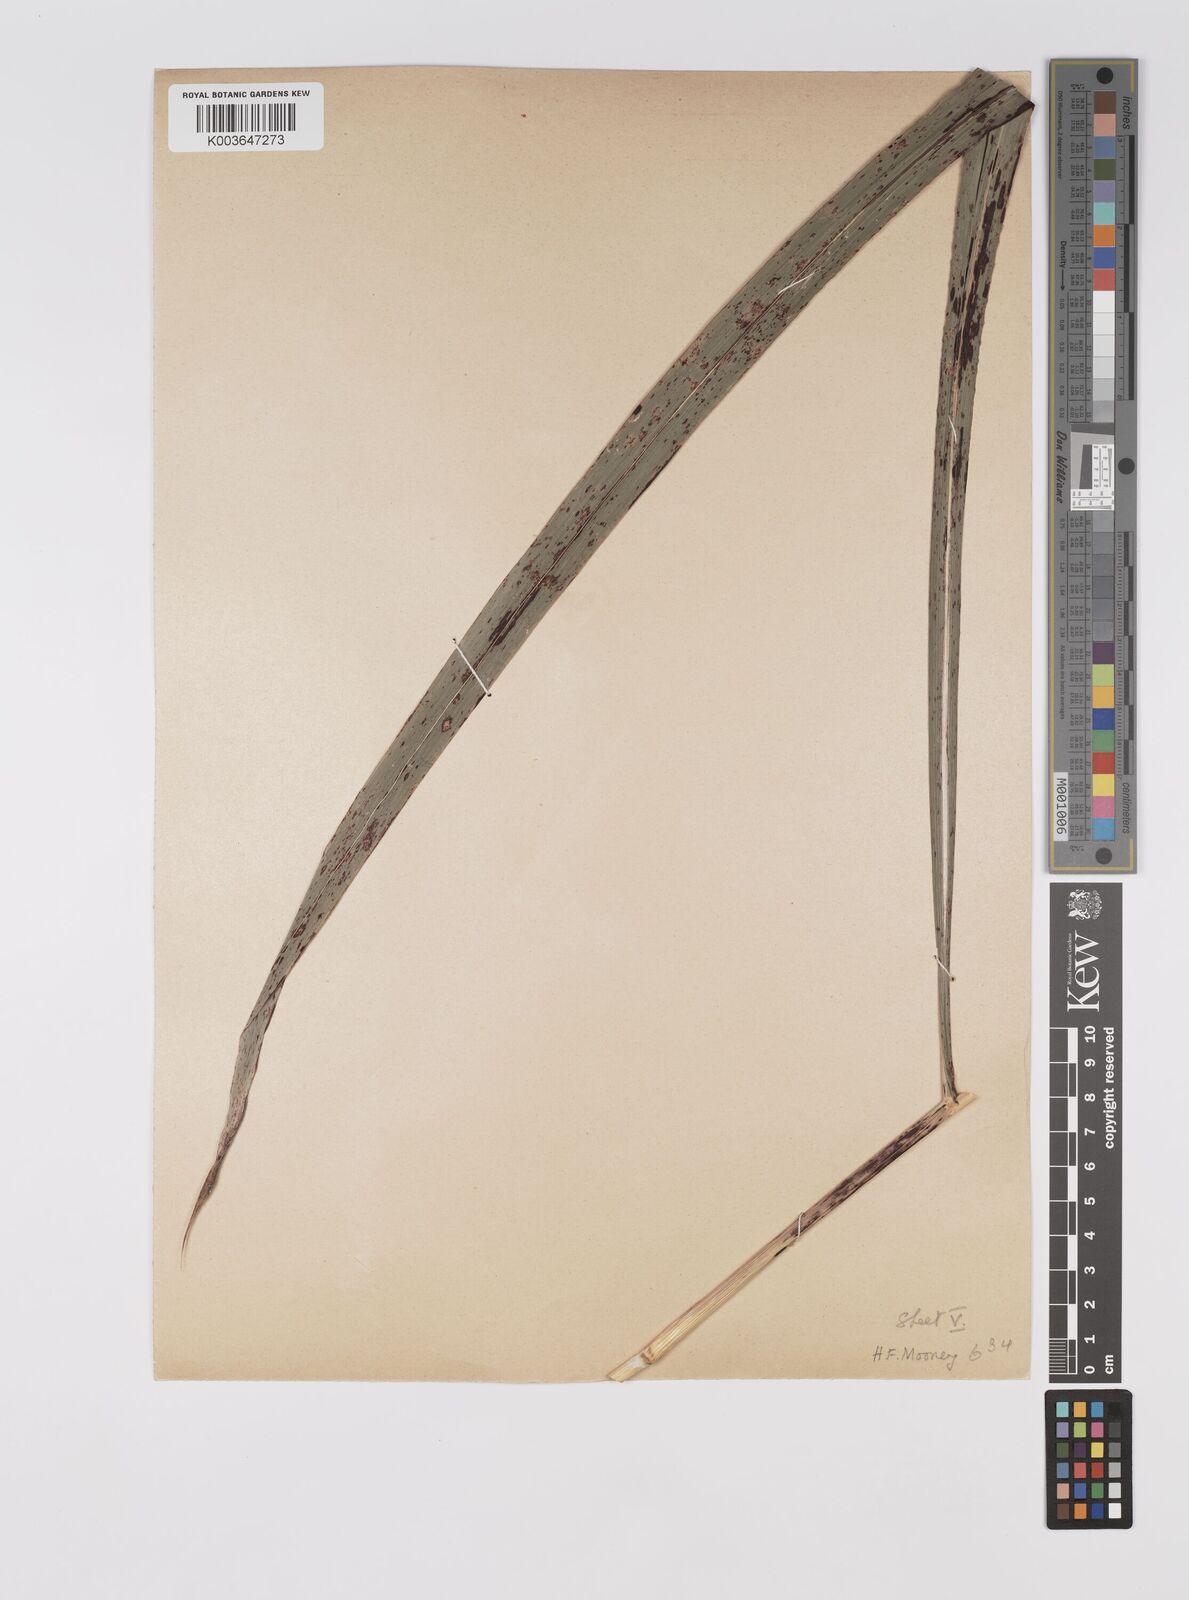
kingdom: Plantae
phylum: Tracheophyta
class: Liliopsida
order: Poales
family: Poaceae
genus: Sorghum
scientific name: Sorghum halepense
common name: Johnson-grass
